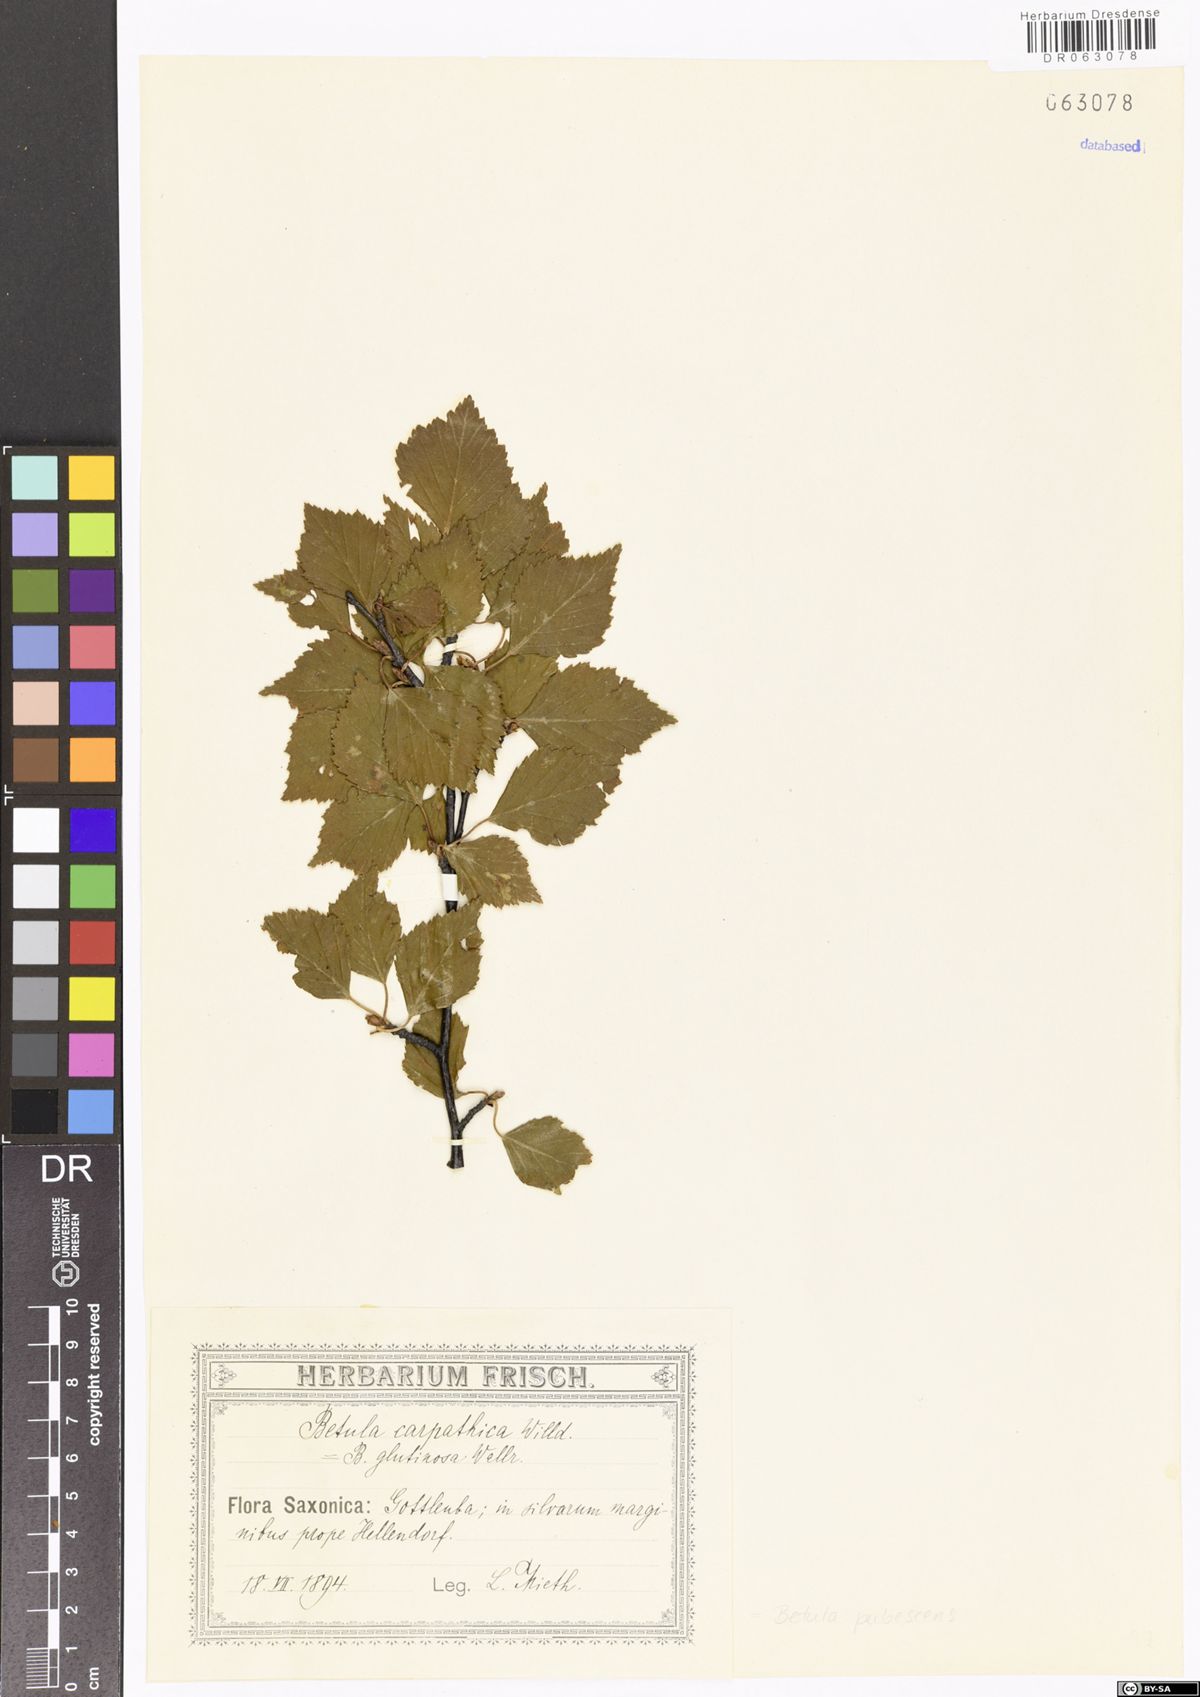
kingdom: Plantae
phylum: Tracheophyta
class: Magnoliopsida
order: Fagales
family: Betulaceae
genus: Betula
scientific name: Betula pubescens
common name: Downy birch
